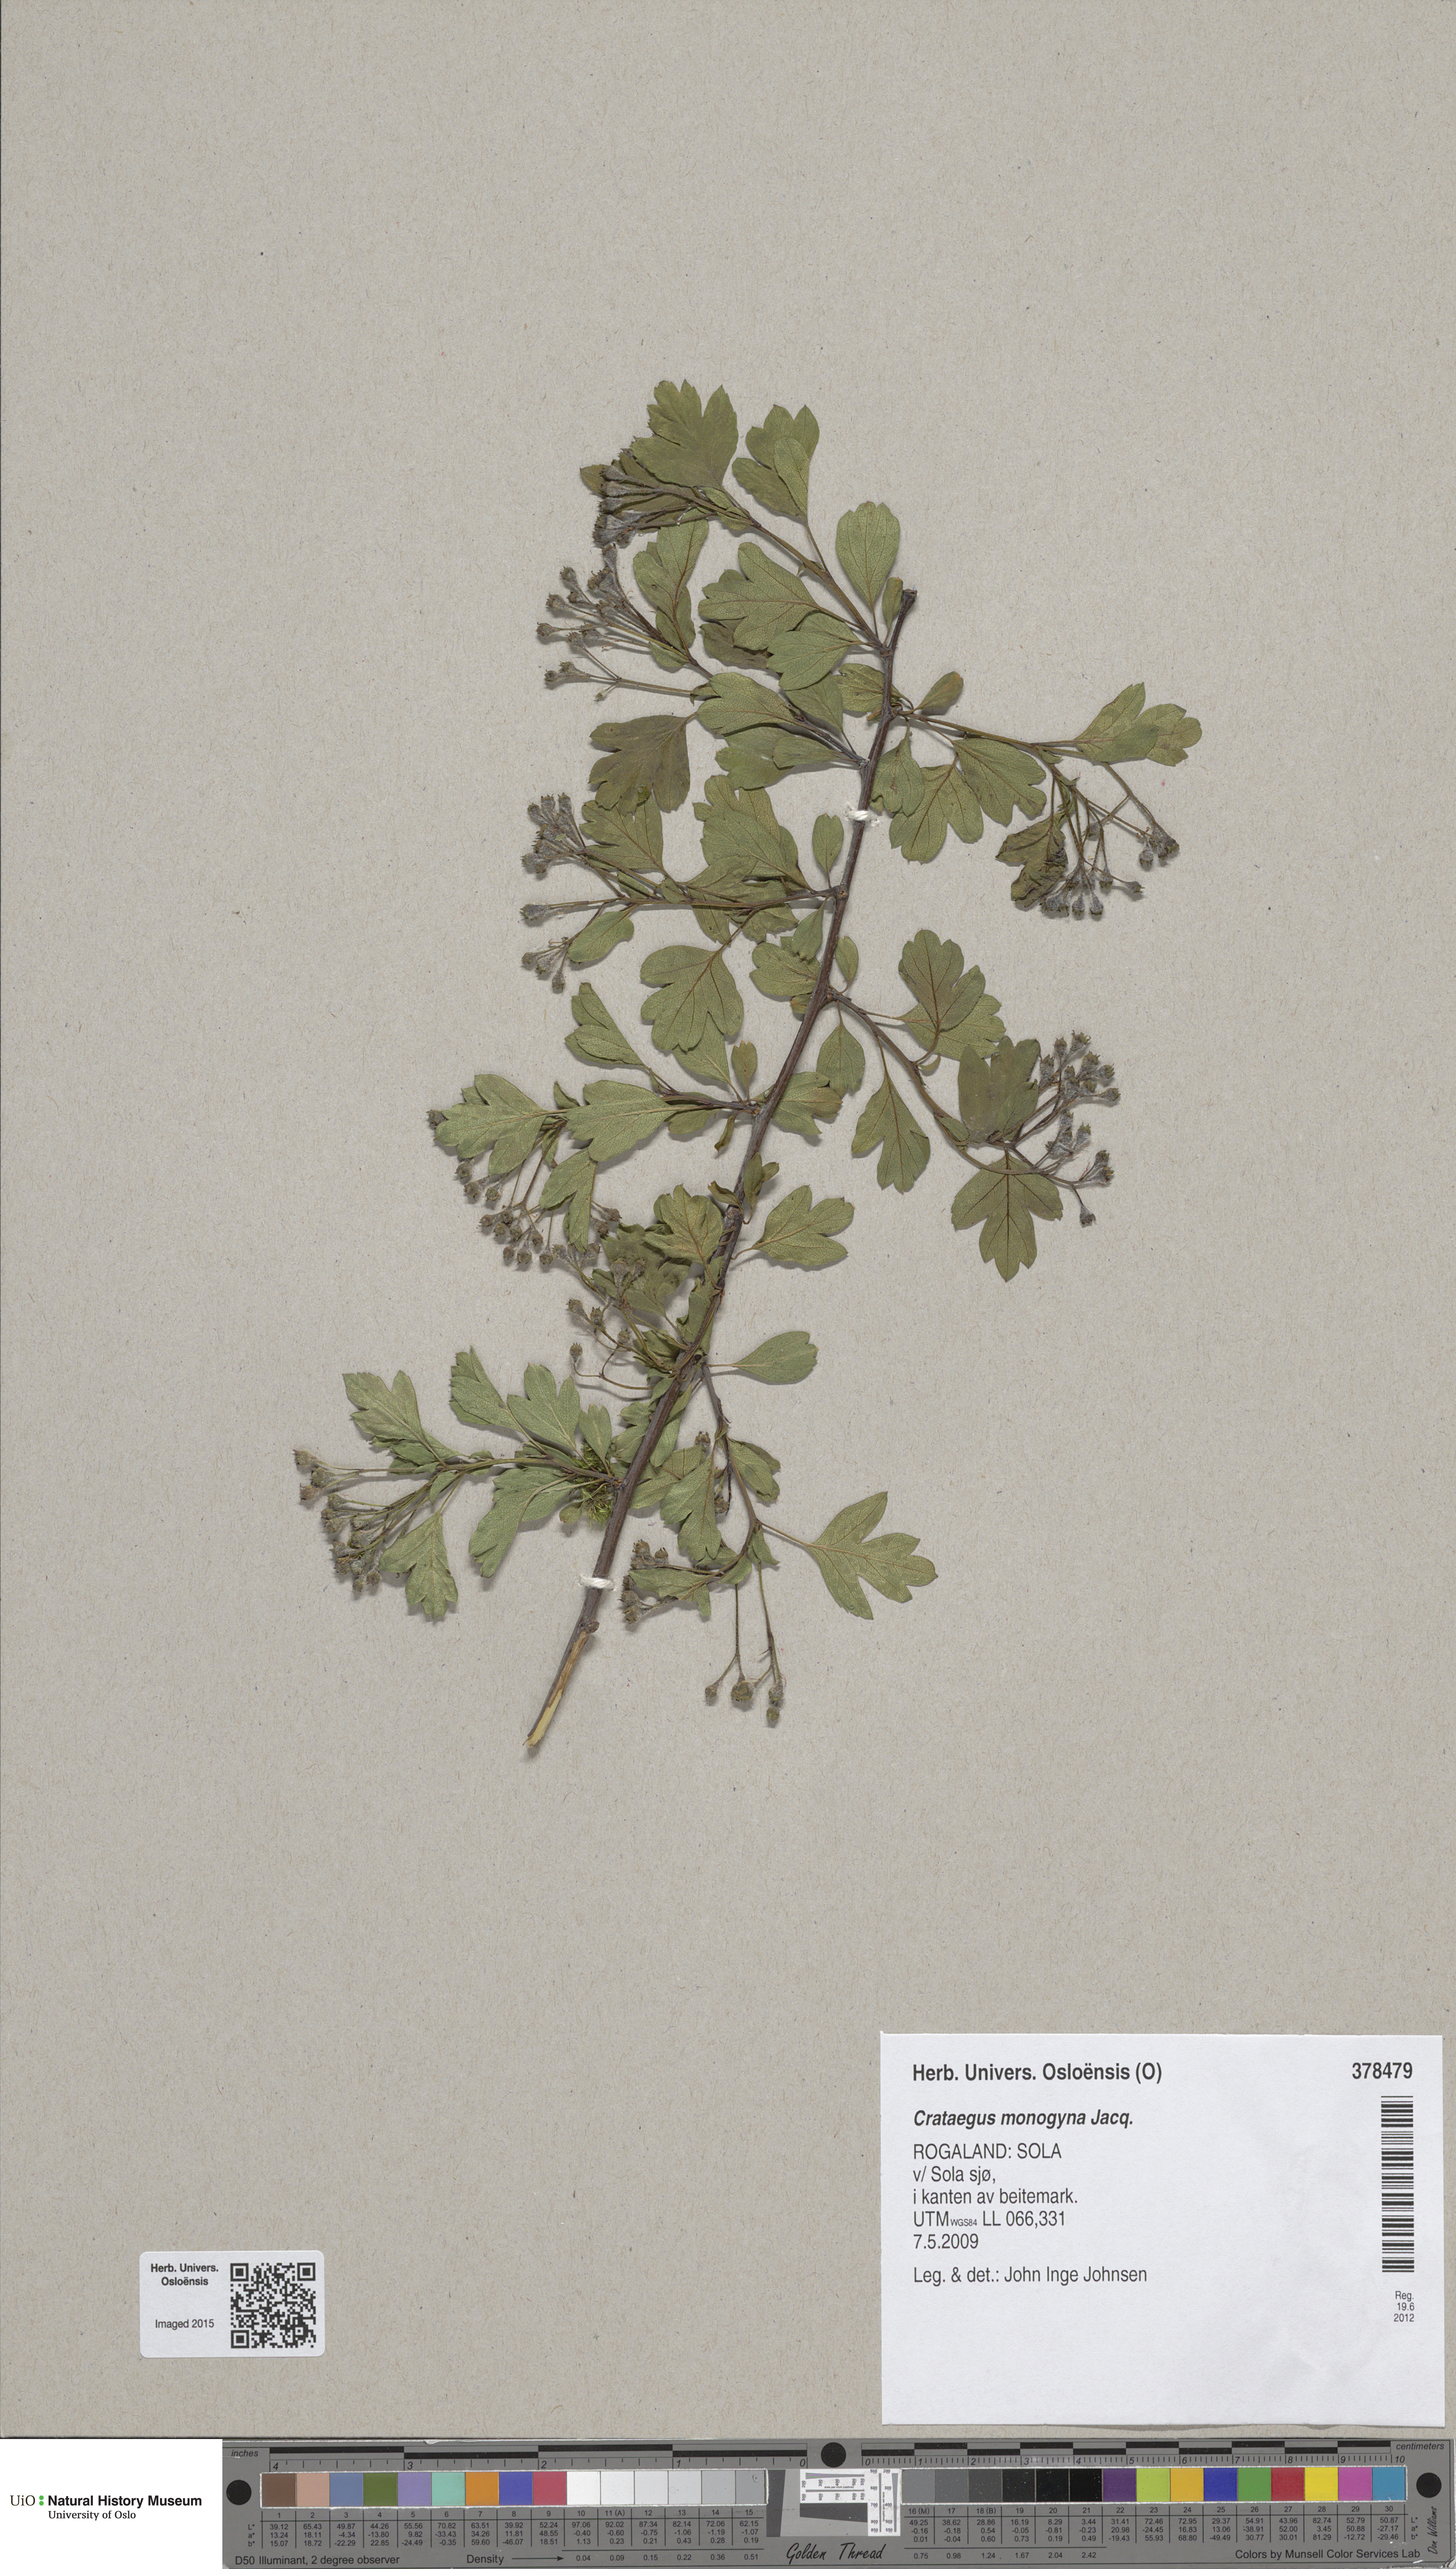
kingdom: Plantae
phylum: Tracheophyta
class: Magnoliopsida
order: Rosales
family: Rosaceae
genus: Crataegus
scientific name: Crataegus monogyna
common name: Hawthorn
